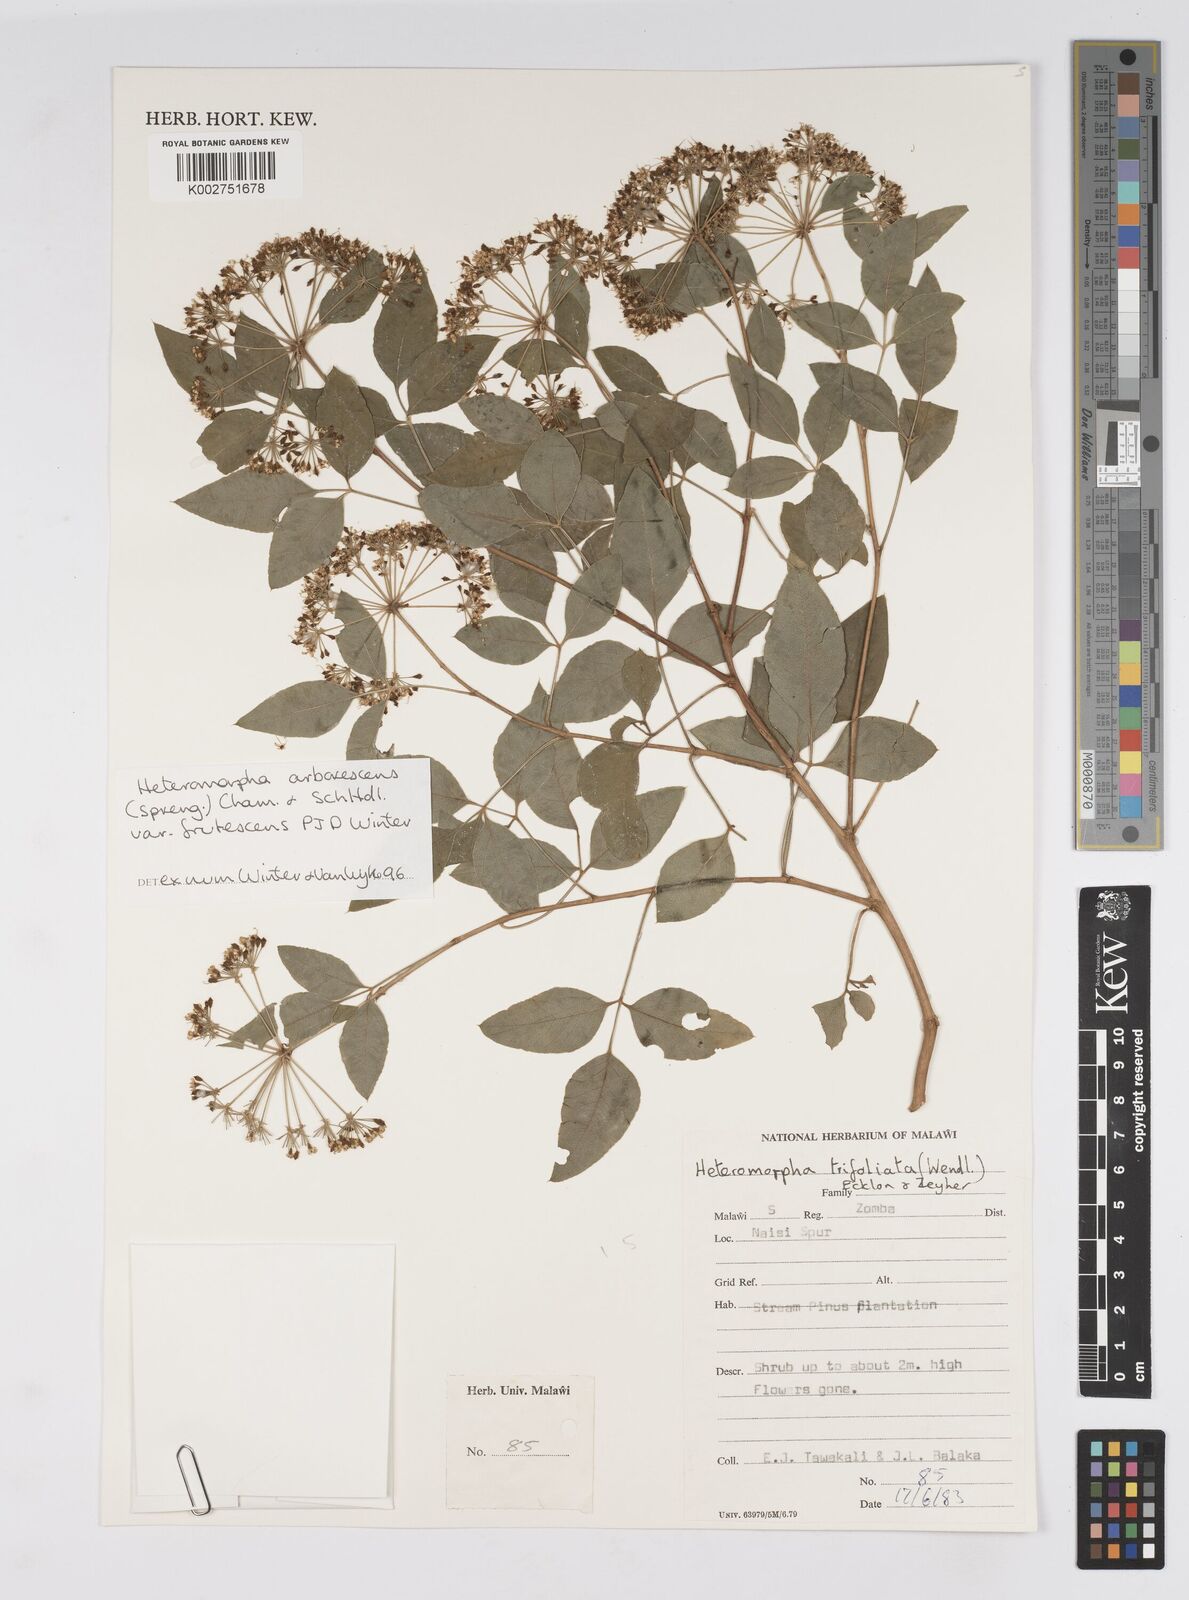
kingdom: Plantae
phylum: Tracheophyta
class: Magnoliopsida
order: Apiales
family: Apiaceae
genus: Heteromorpha
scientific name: Heteromorpha arborescens
